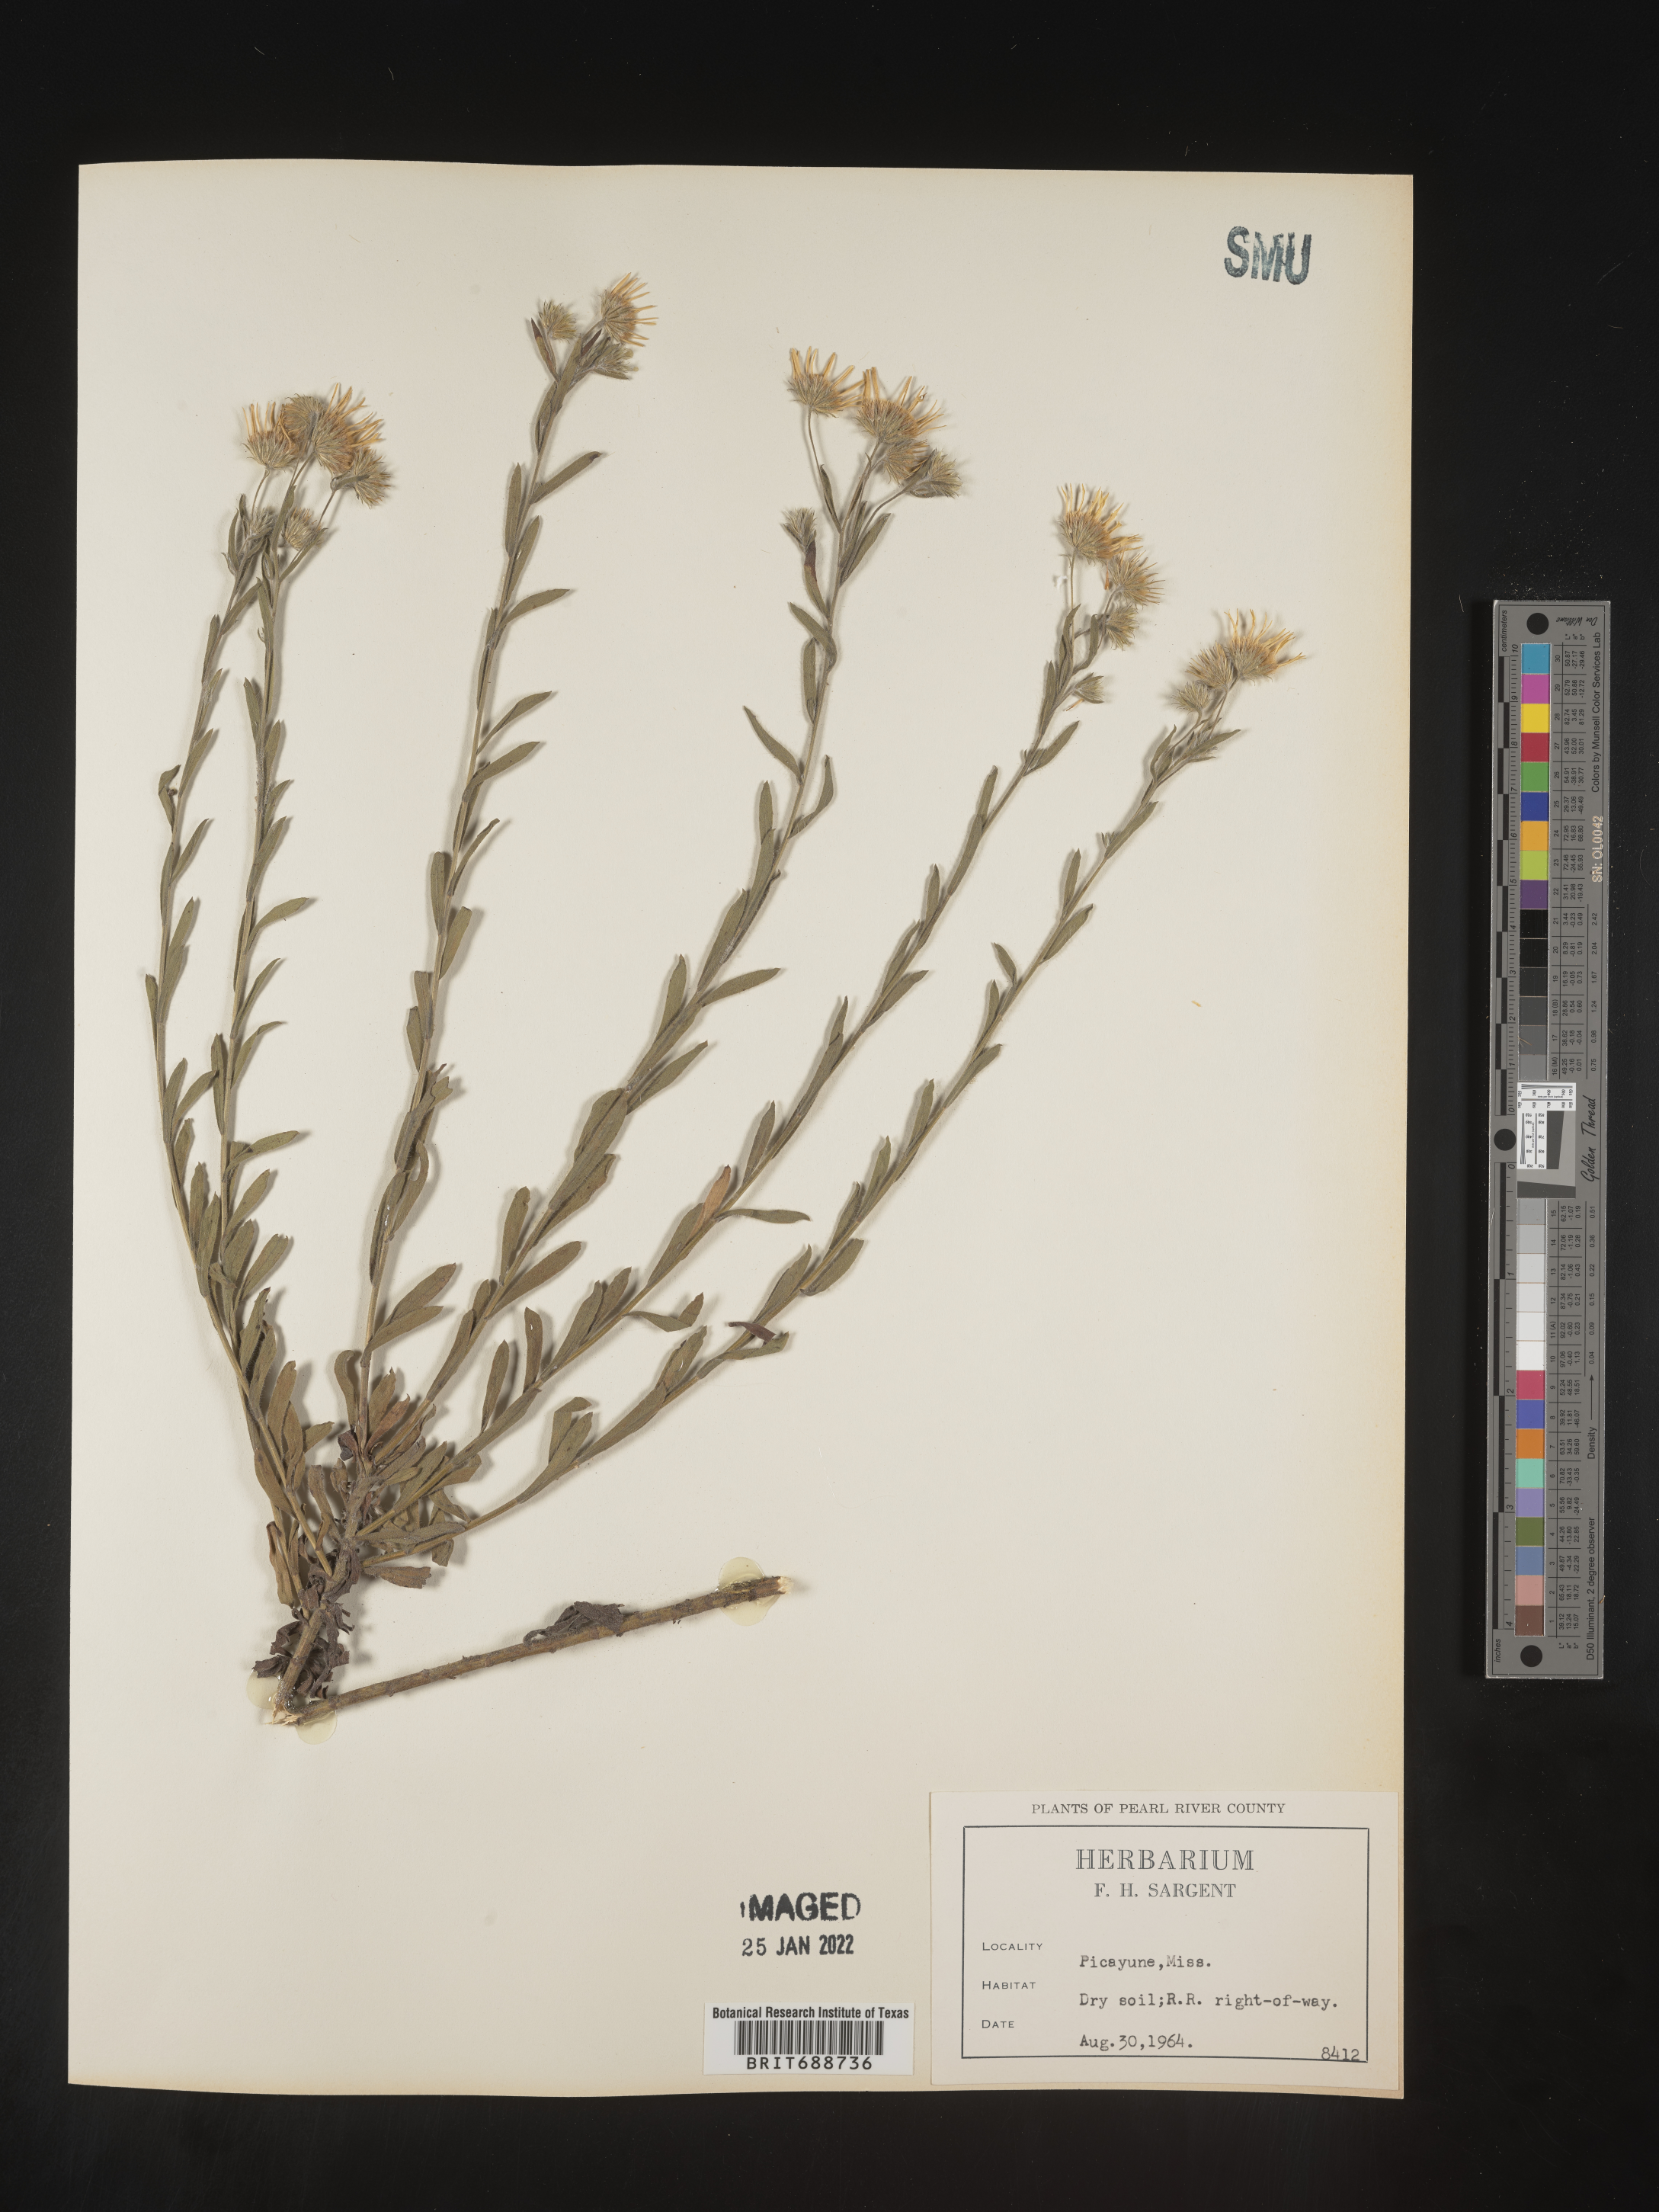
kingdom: Plantae
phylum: Tracheophyta
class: Magnoliopsida
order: Asterales
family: Asteraceae
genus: Bradburia
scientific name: Bradburia pilosa
